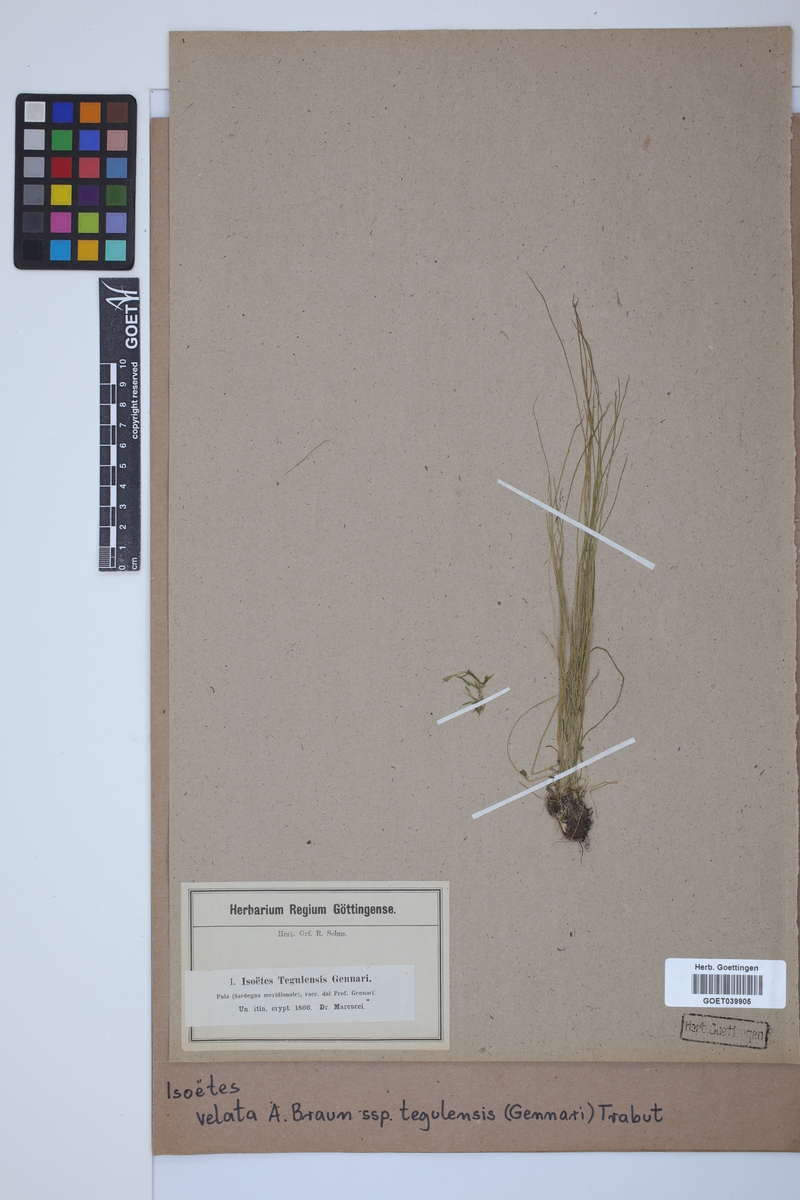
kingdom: Plantae
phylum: Tracheophyta
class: Lycopodiopsida
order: Isoetales
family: Isoetaceae
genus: Isoetes
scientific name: Isoetes tiguliana
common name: Sardinian quillwort
